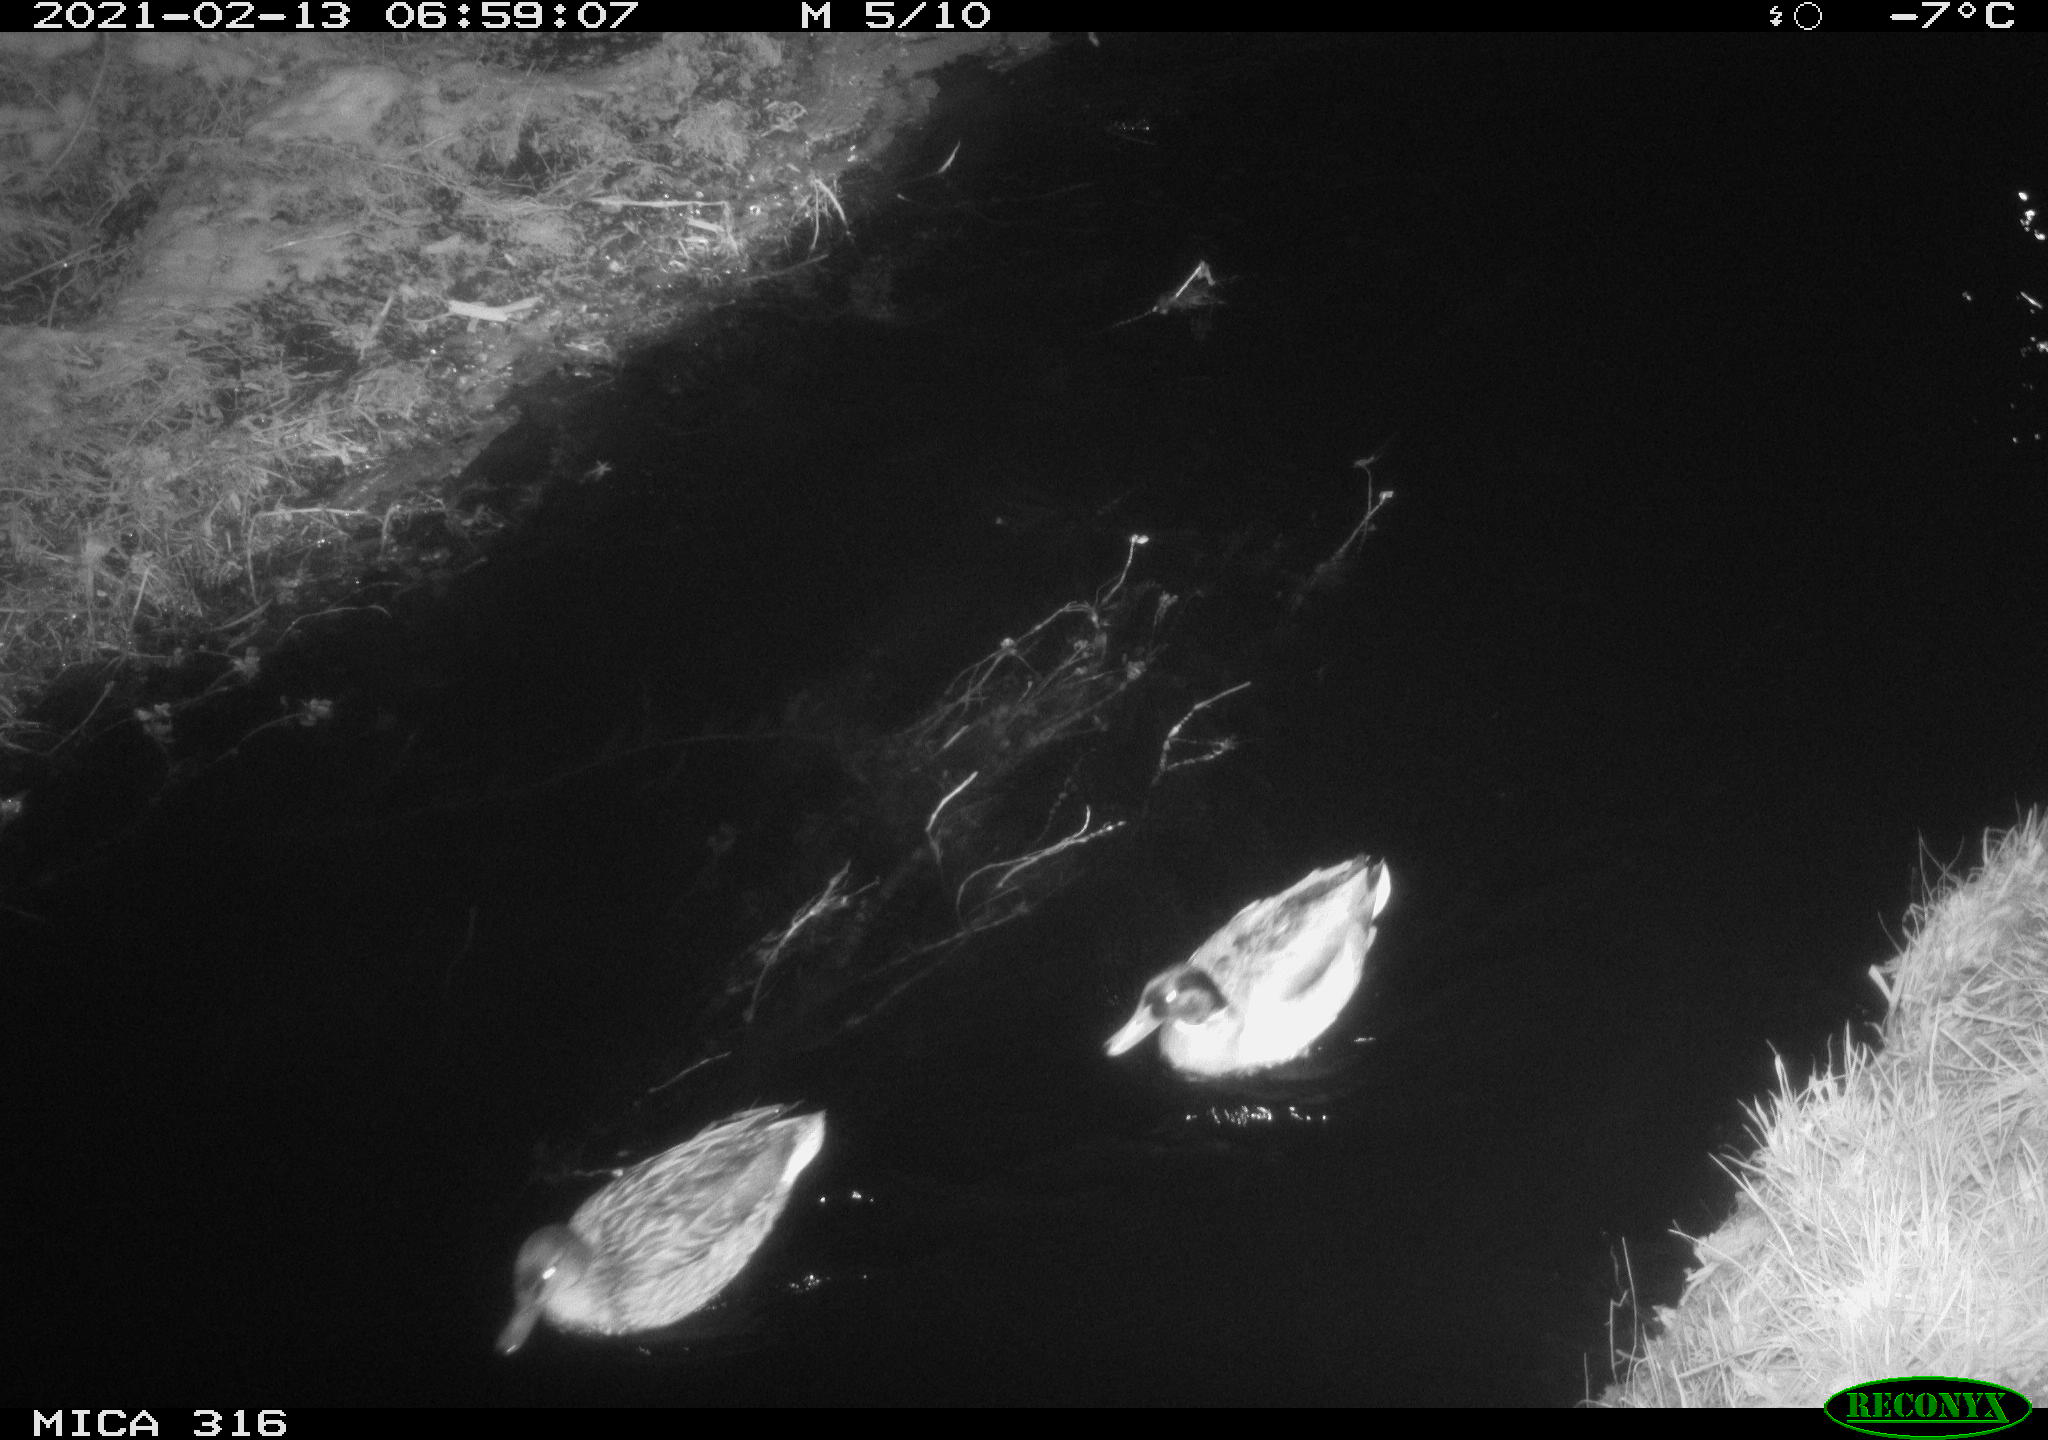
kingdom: Animalia
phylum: Chordata
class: Aves
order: Anseriformes
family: Anatidae
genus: Anas
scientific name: Anas platyrhynchos
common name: Mallard
